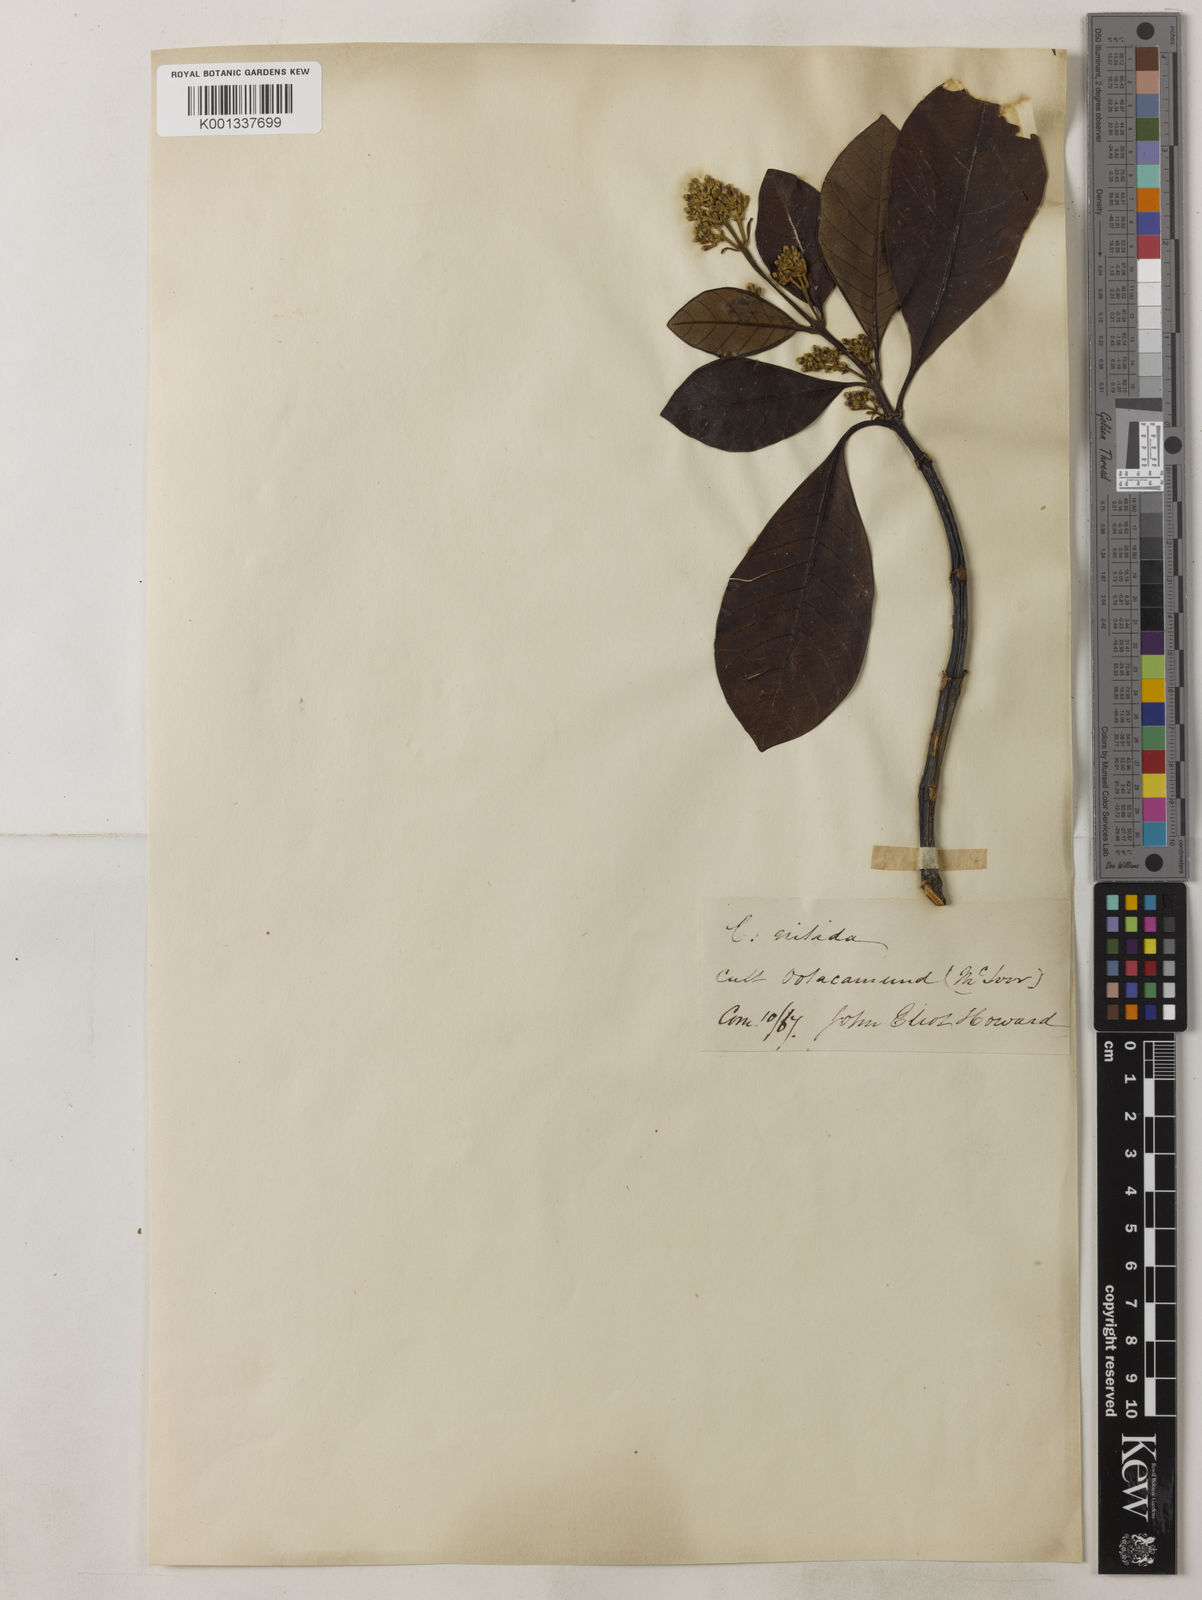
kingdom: Plantae
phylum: Tracheophyta
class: Magnoliopsida
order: Gentianales
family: Rubiaceae
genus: Cinchona
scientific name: Cinchona nitida
